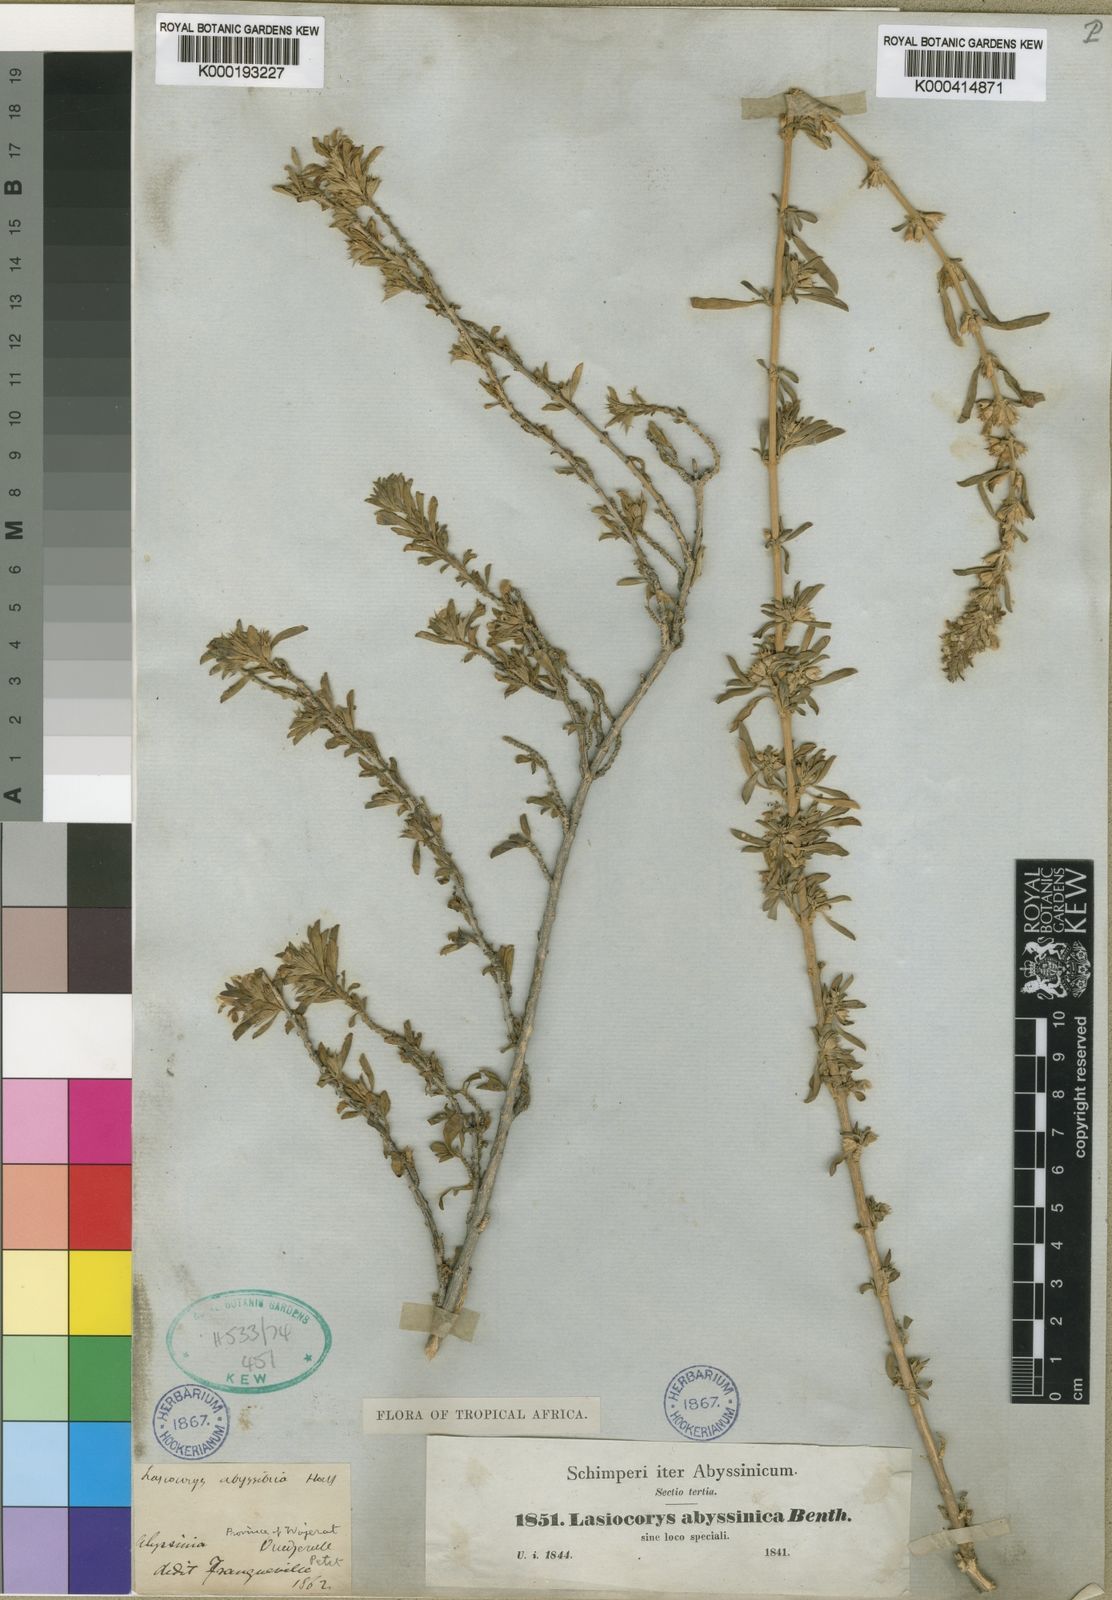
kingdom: Plantae
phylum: Tracheophyta
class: Magnoliopsida
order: Lamiales
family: Lamiaceae
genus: Leucas
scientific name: Leucas abyssinica
